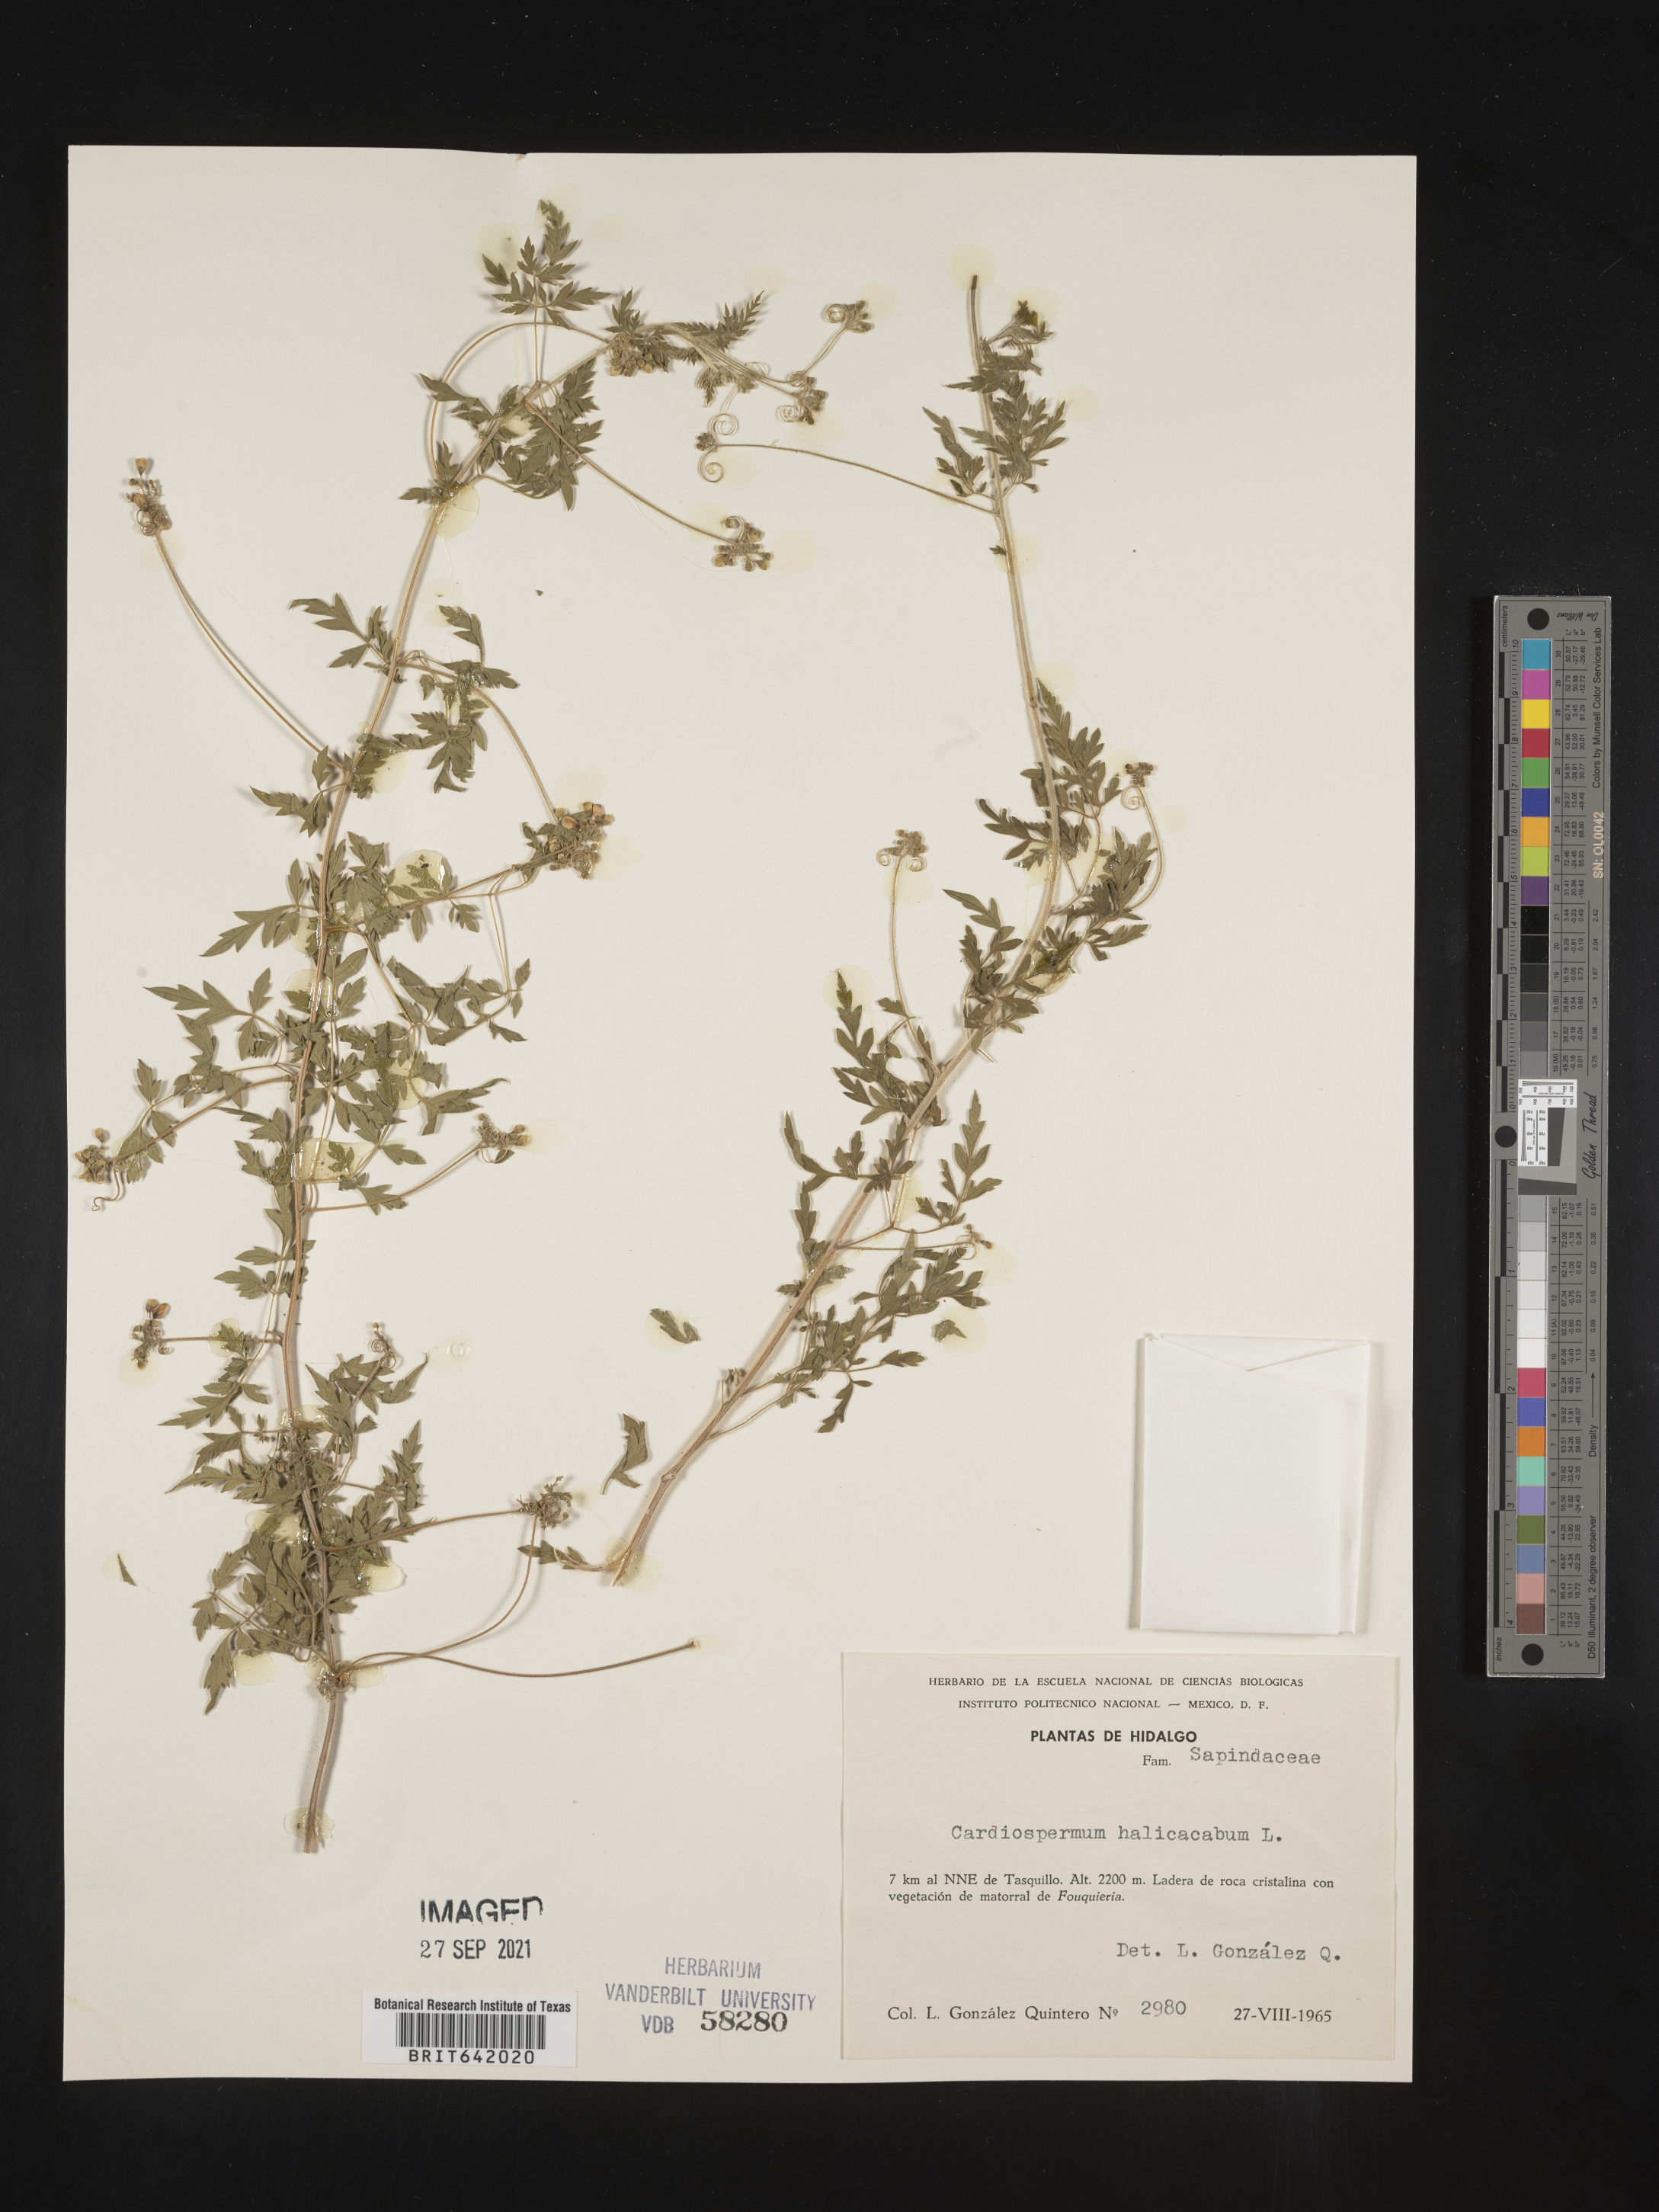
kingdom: Plantae
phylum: Tracheophyta
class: Magnoliopsida
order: Sapindales
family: Sapindaceae
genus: Cardiospermum
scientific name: Cardiospermum
